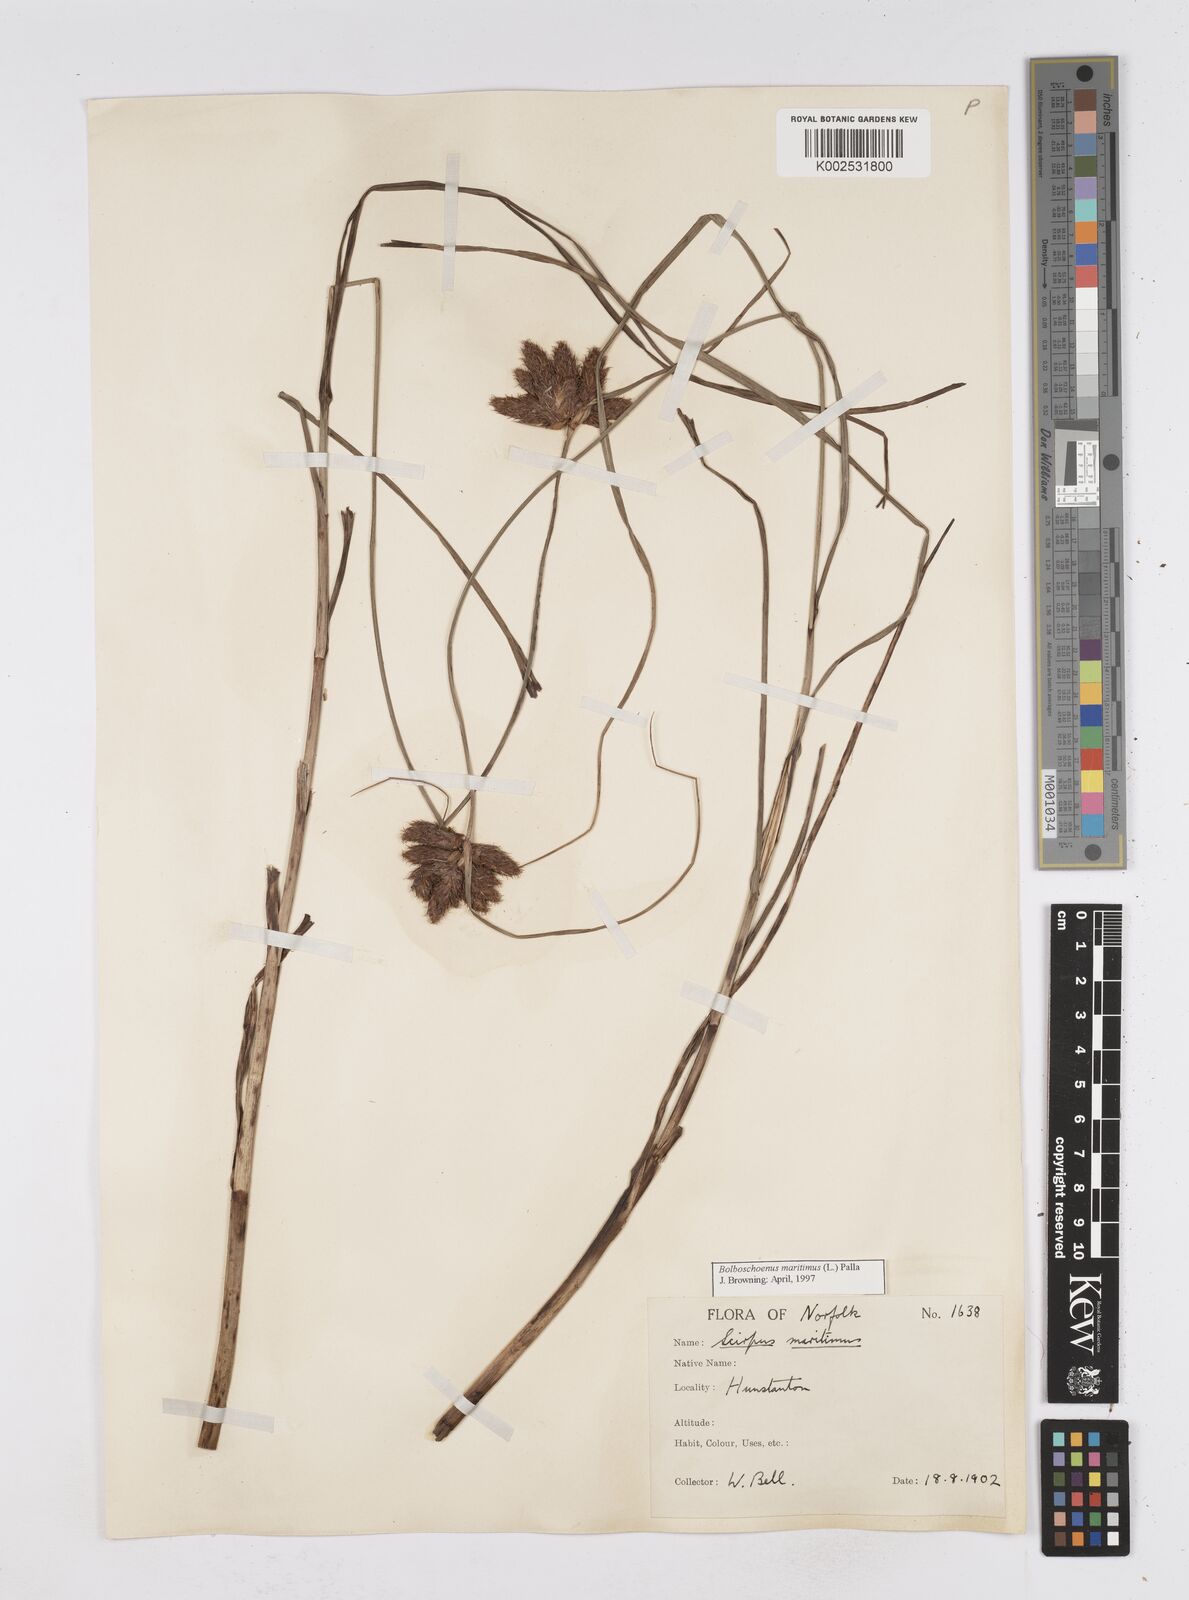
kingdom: Plantae
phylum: Tracheophyta
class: Liliopsida
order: Poales
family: Cyperaceae
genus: Bolboschoenus
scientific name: Bolboschoenus maritimus
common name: Sea club-rush
